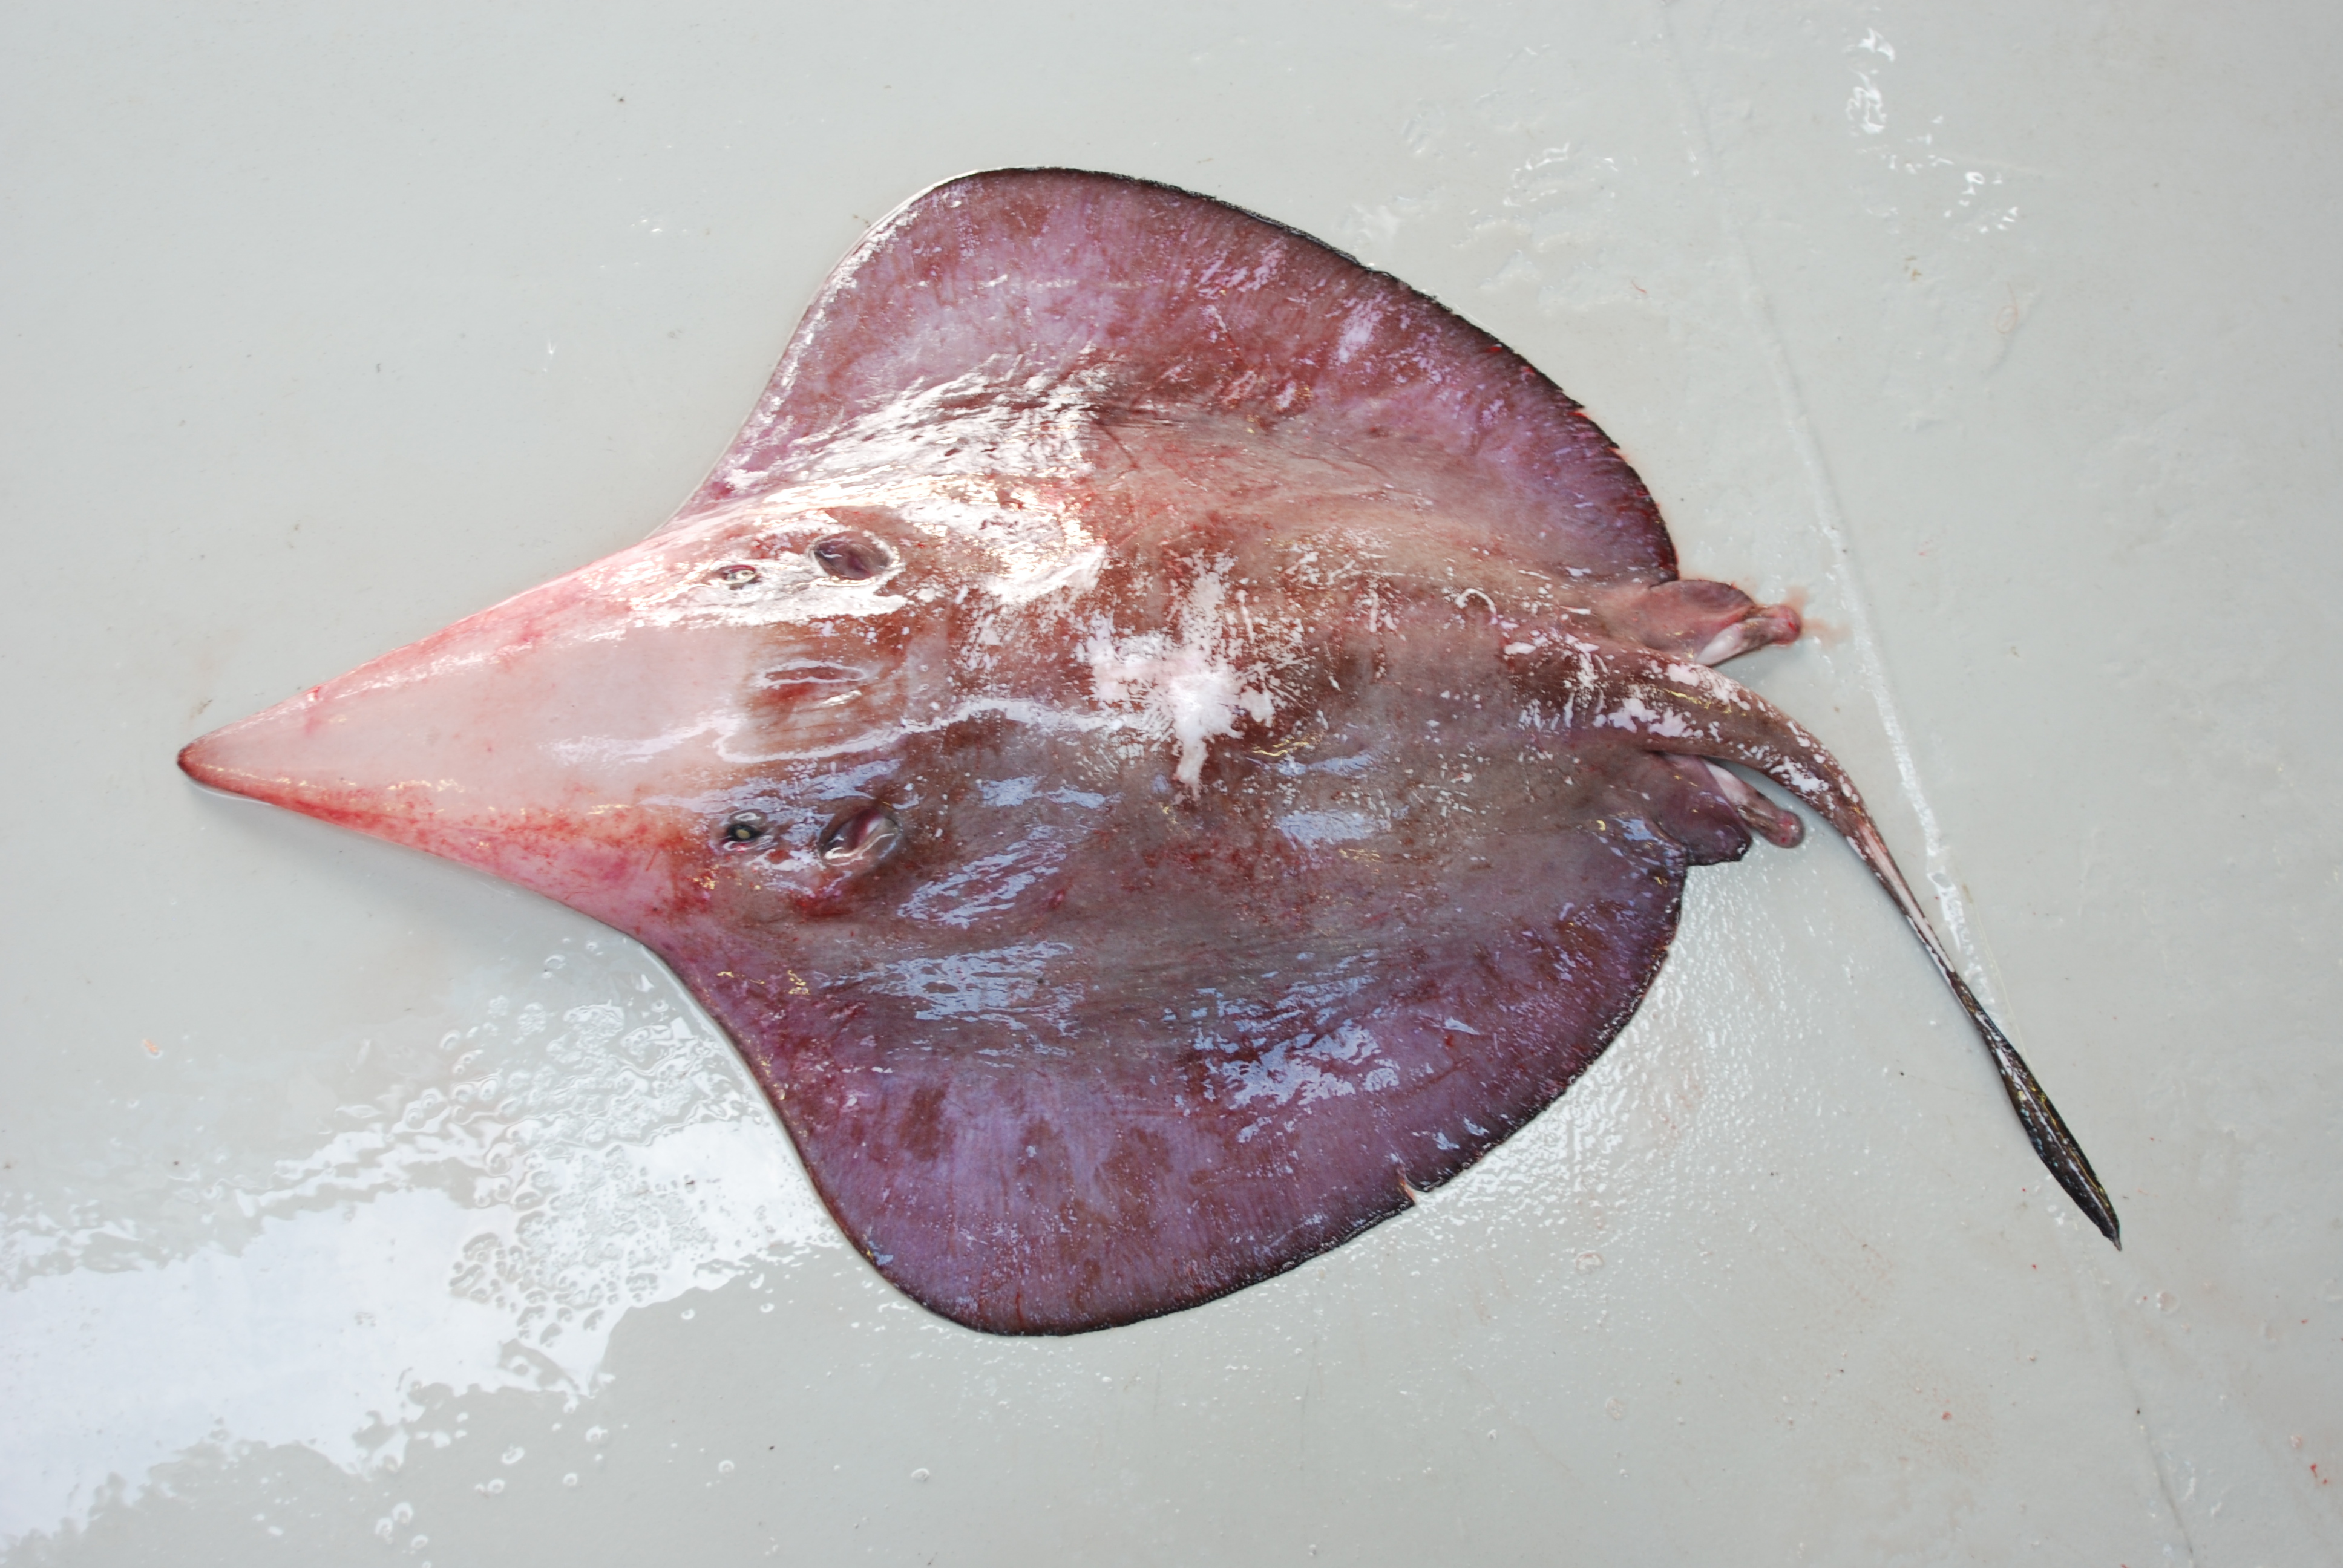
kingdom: Animalia
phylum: Chordata
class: Elasmobranchii
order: Myliobatiformes
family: Hexatrygonidae
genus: Hexatrygon
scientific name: Hexatrygon bickelli
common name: Sixgill stingray
